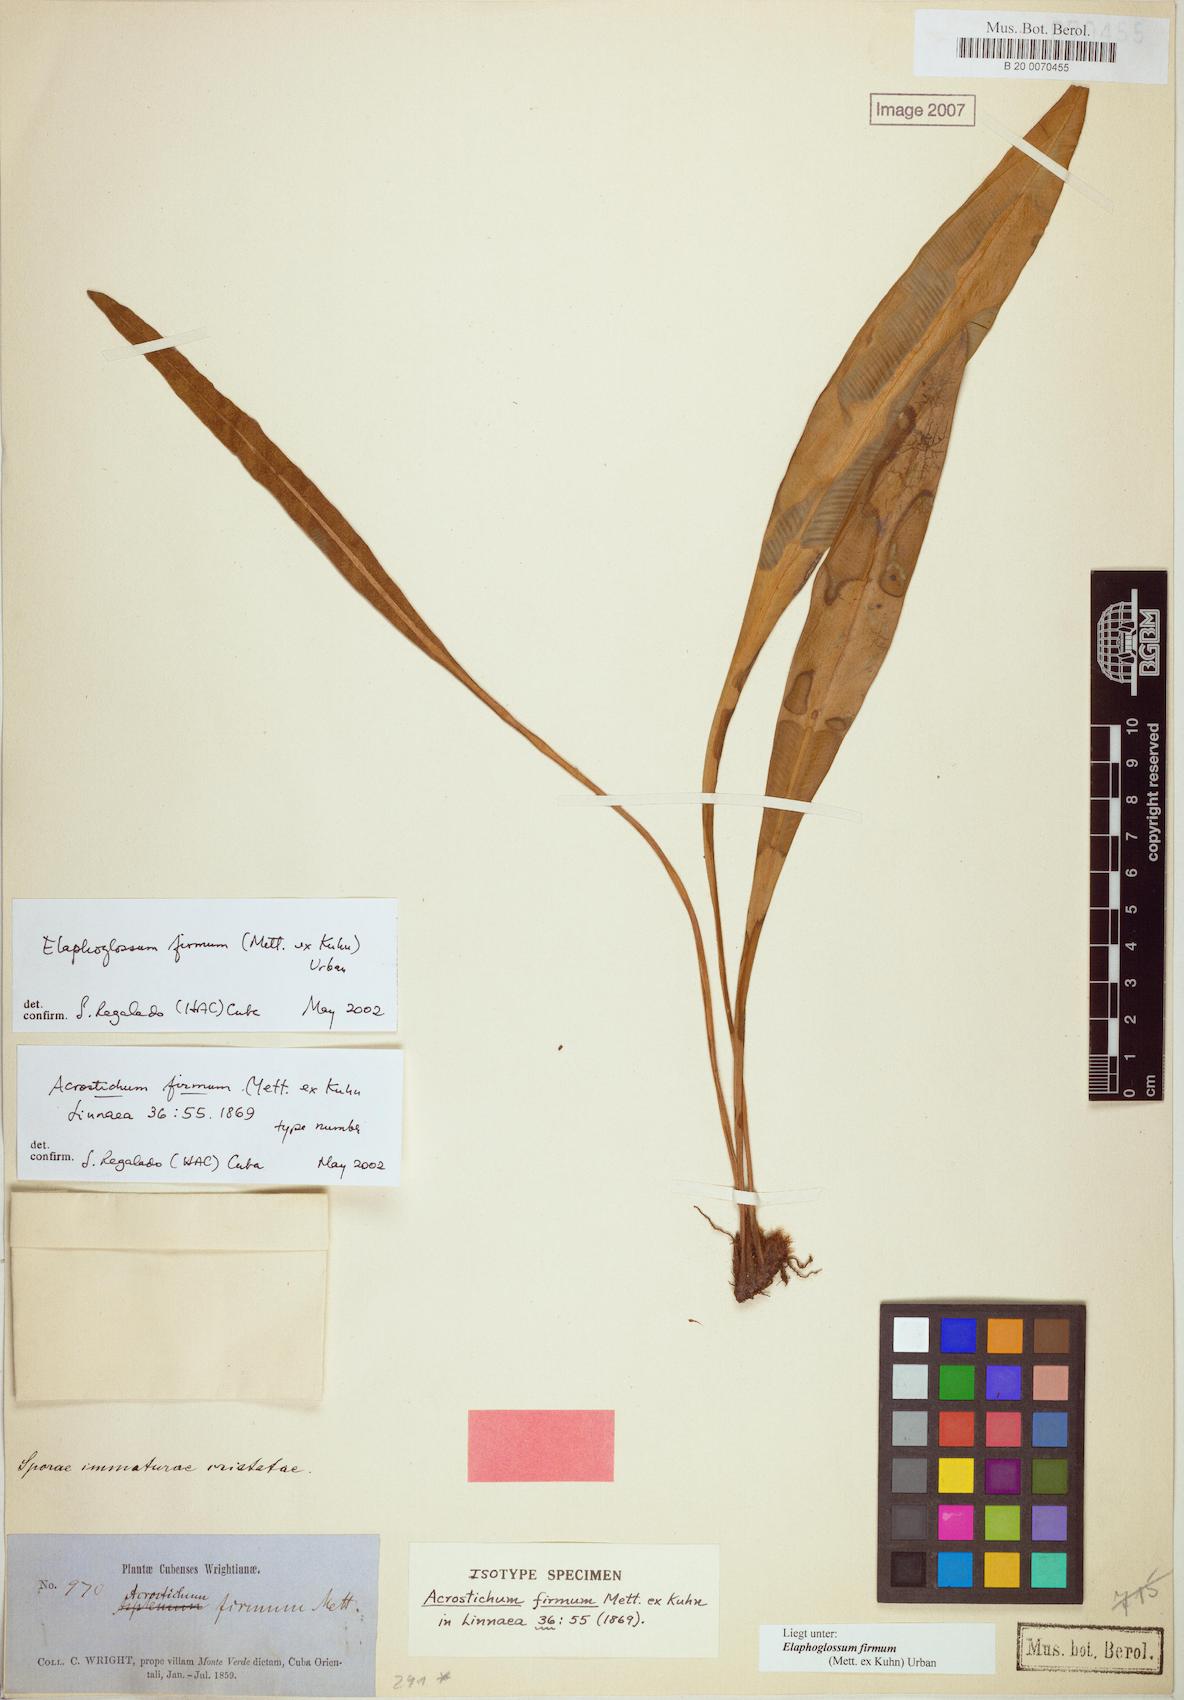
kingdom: Plantae
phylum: Tracheophyta
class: Polypodiopsida
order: Polypodiales
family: Dryopteridaceae
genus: Elaphoglossum
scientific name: Elaphoglossum hoffmannii
